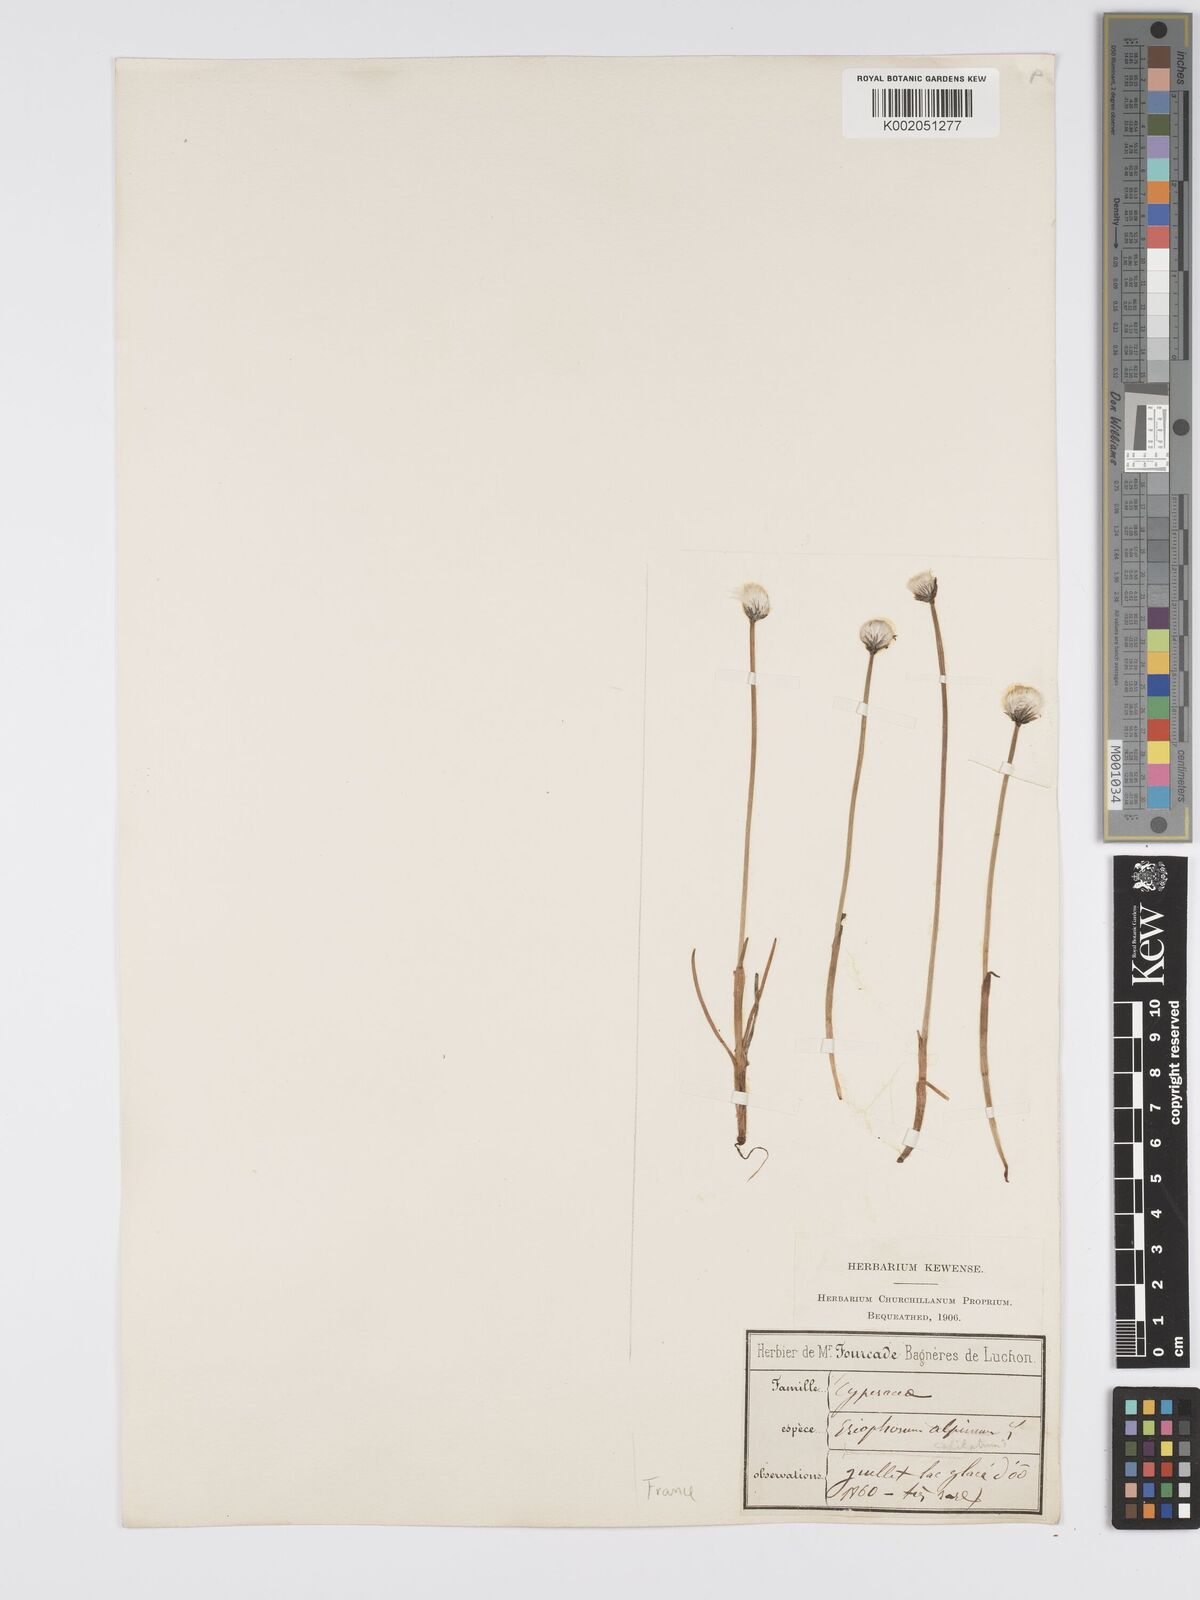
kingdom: Plantae
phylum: Tracheophyta
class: Liliopsida
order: Poales
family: Cyperaceae
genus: Eriophorum
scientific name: Eriophorum latifolium
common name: Broad-leaved cottongrass
